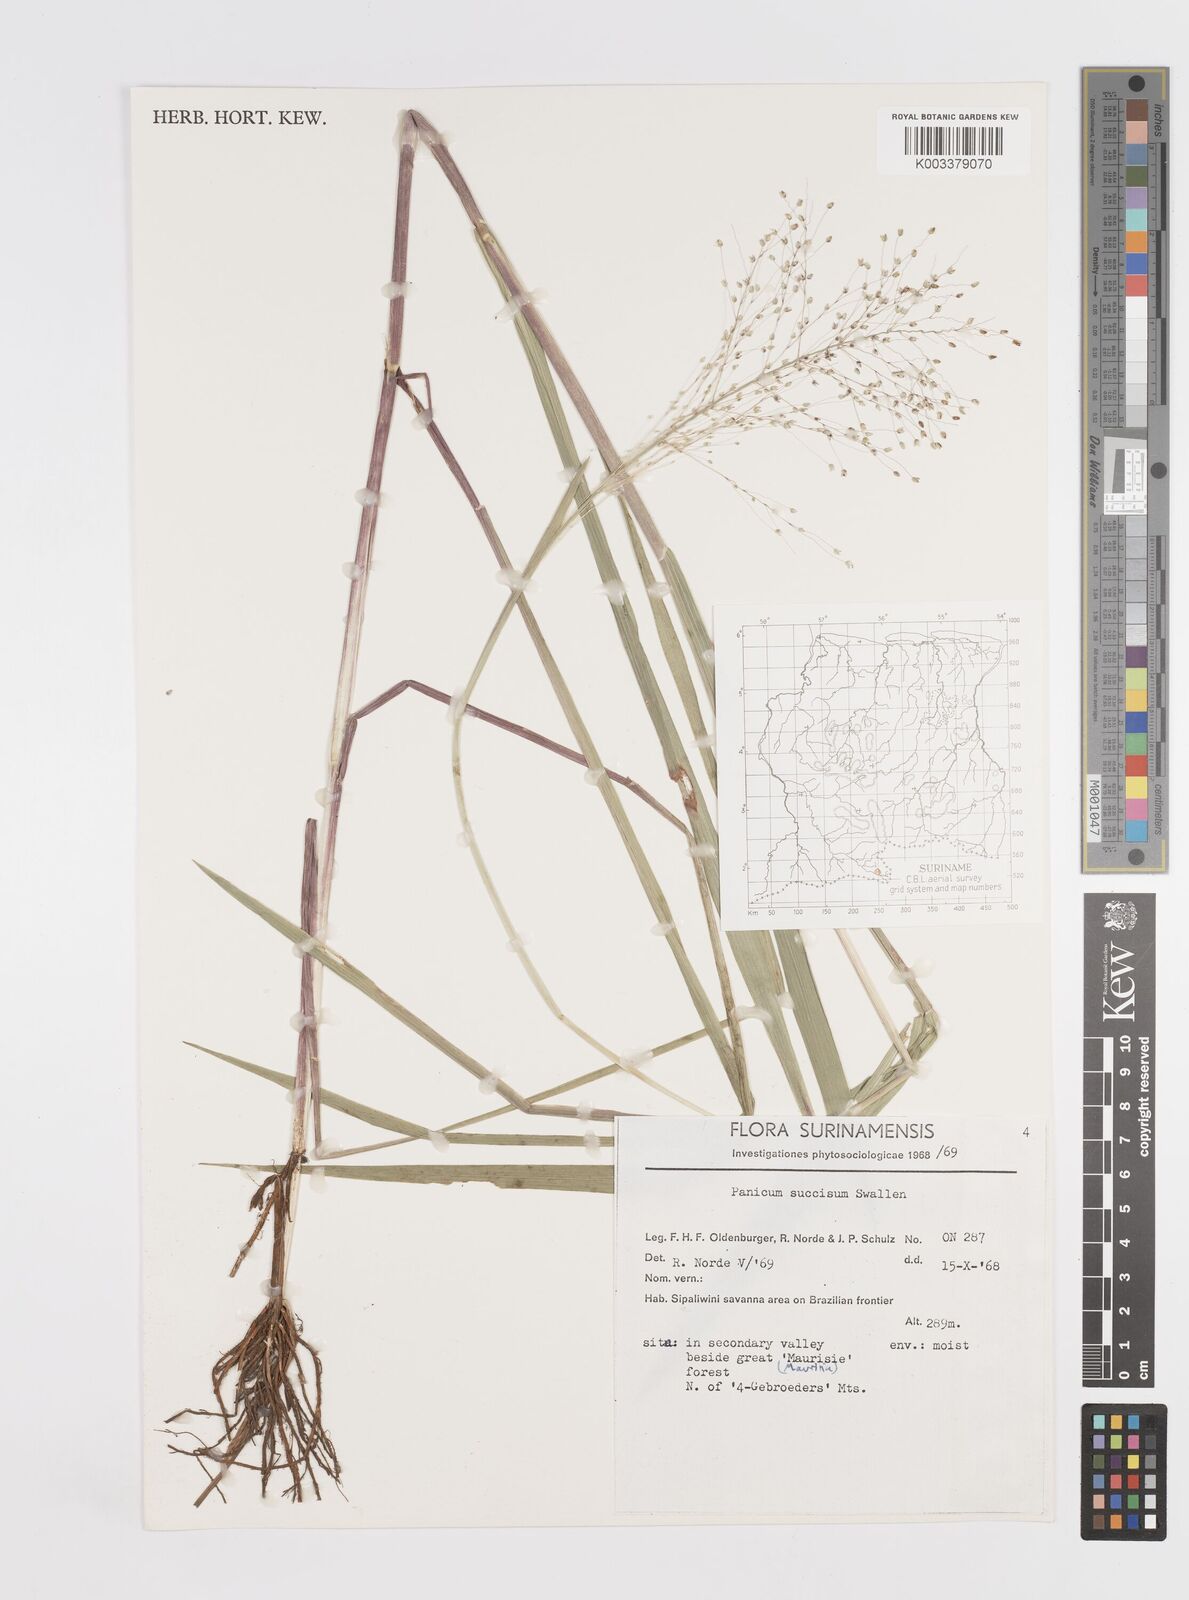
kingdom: Plantae
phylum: Tracheophyta
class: Liliopsida
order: Poales
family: Poaceae
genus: Otachyrium
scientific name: Otachyrium inaequale
